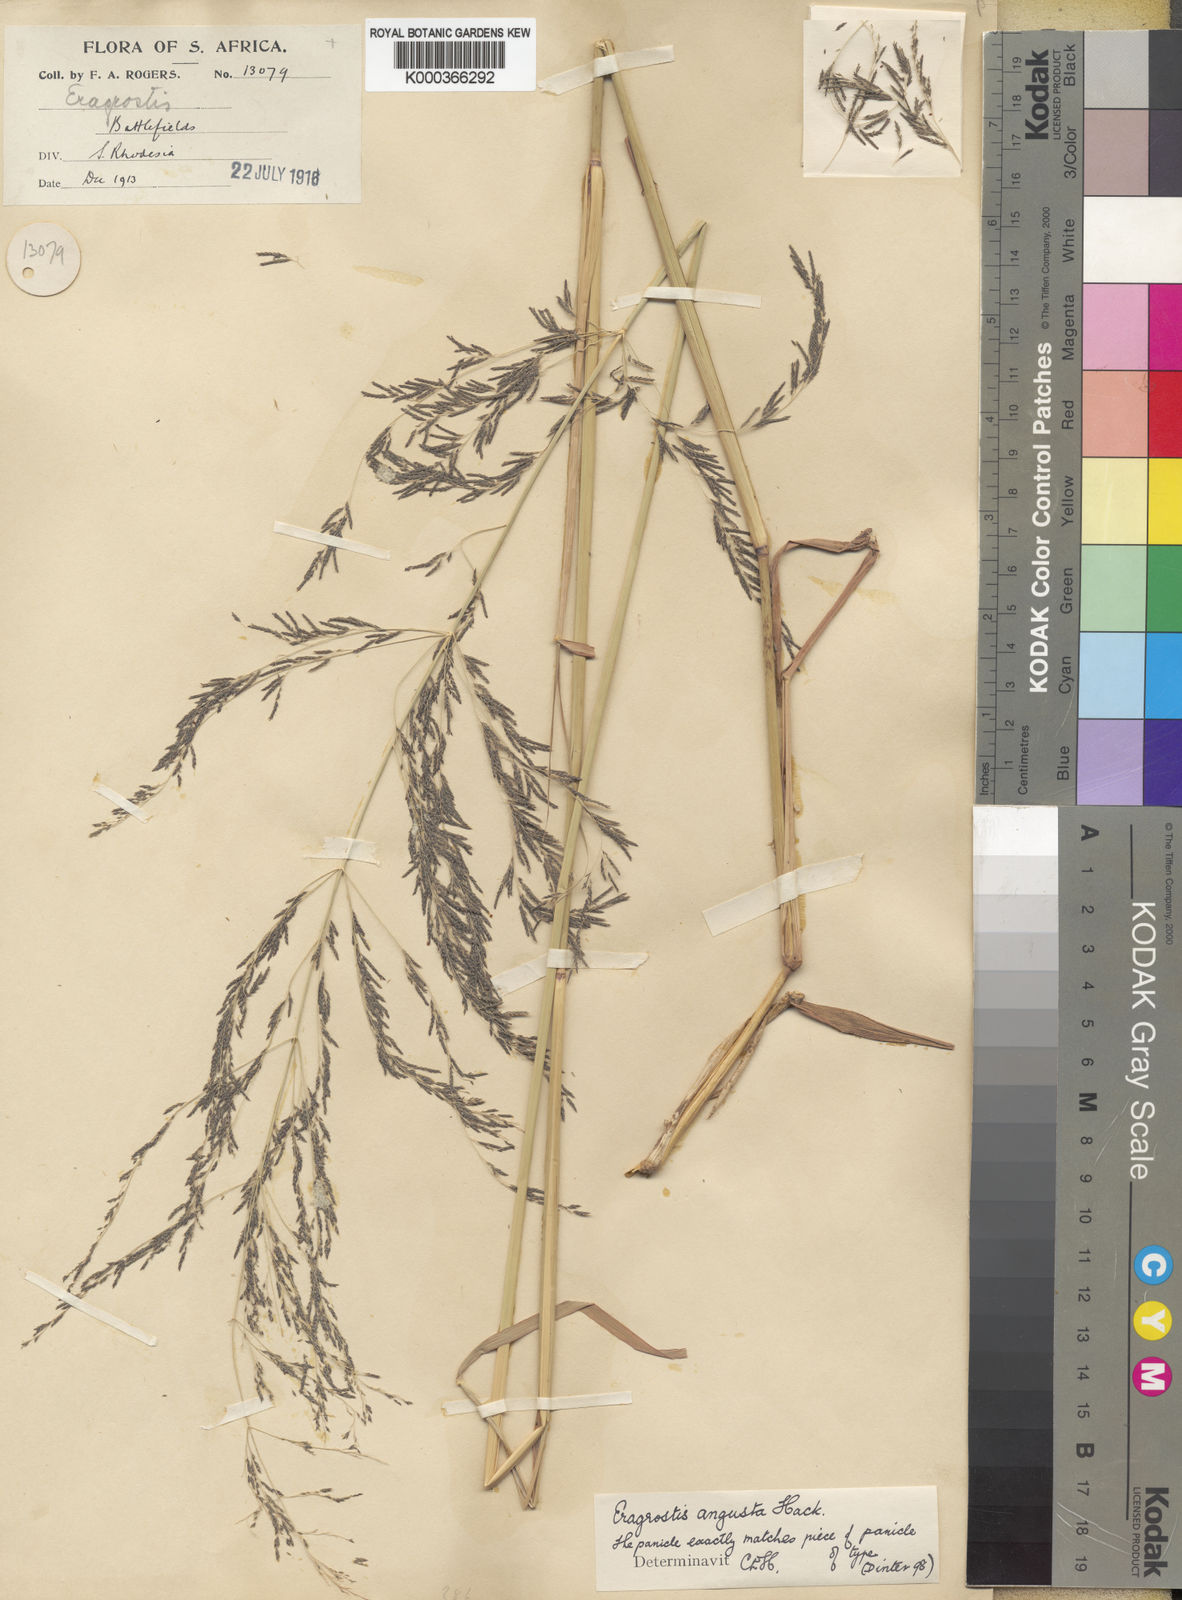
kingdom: Plantae
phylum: Tracheophyta
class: Liliopsida
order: Poales
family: Poaceae
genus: Eragrostis
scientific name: Eragrostis rotifer
